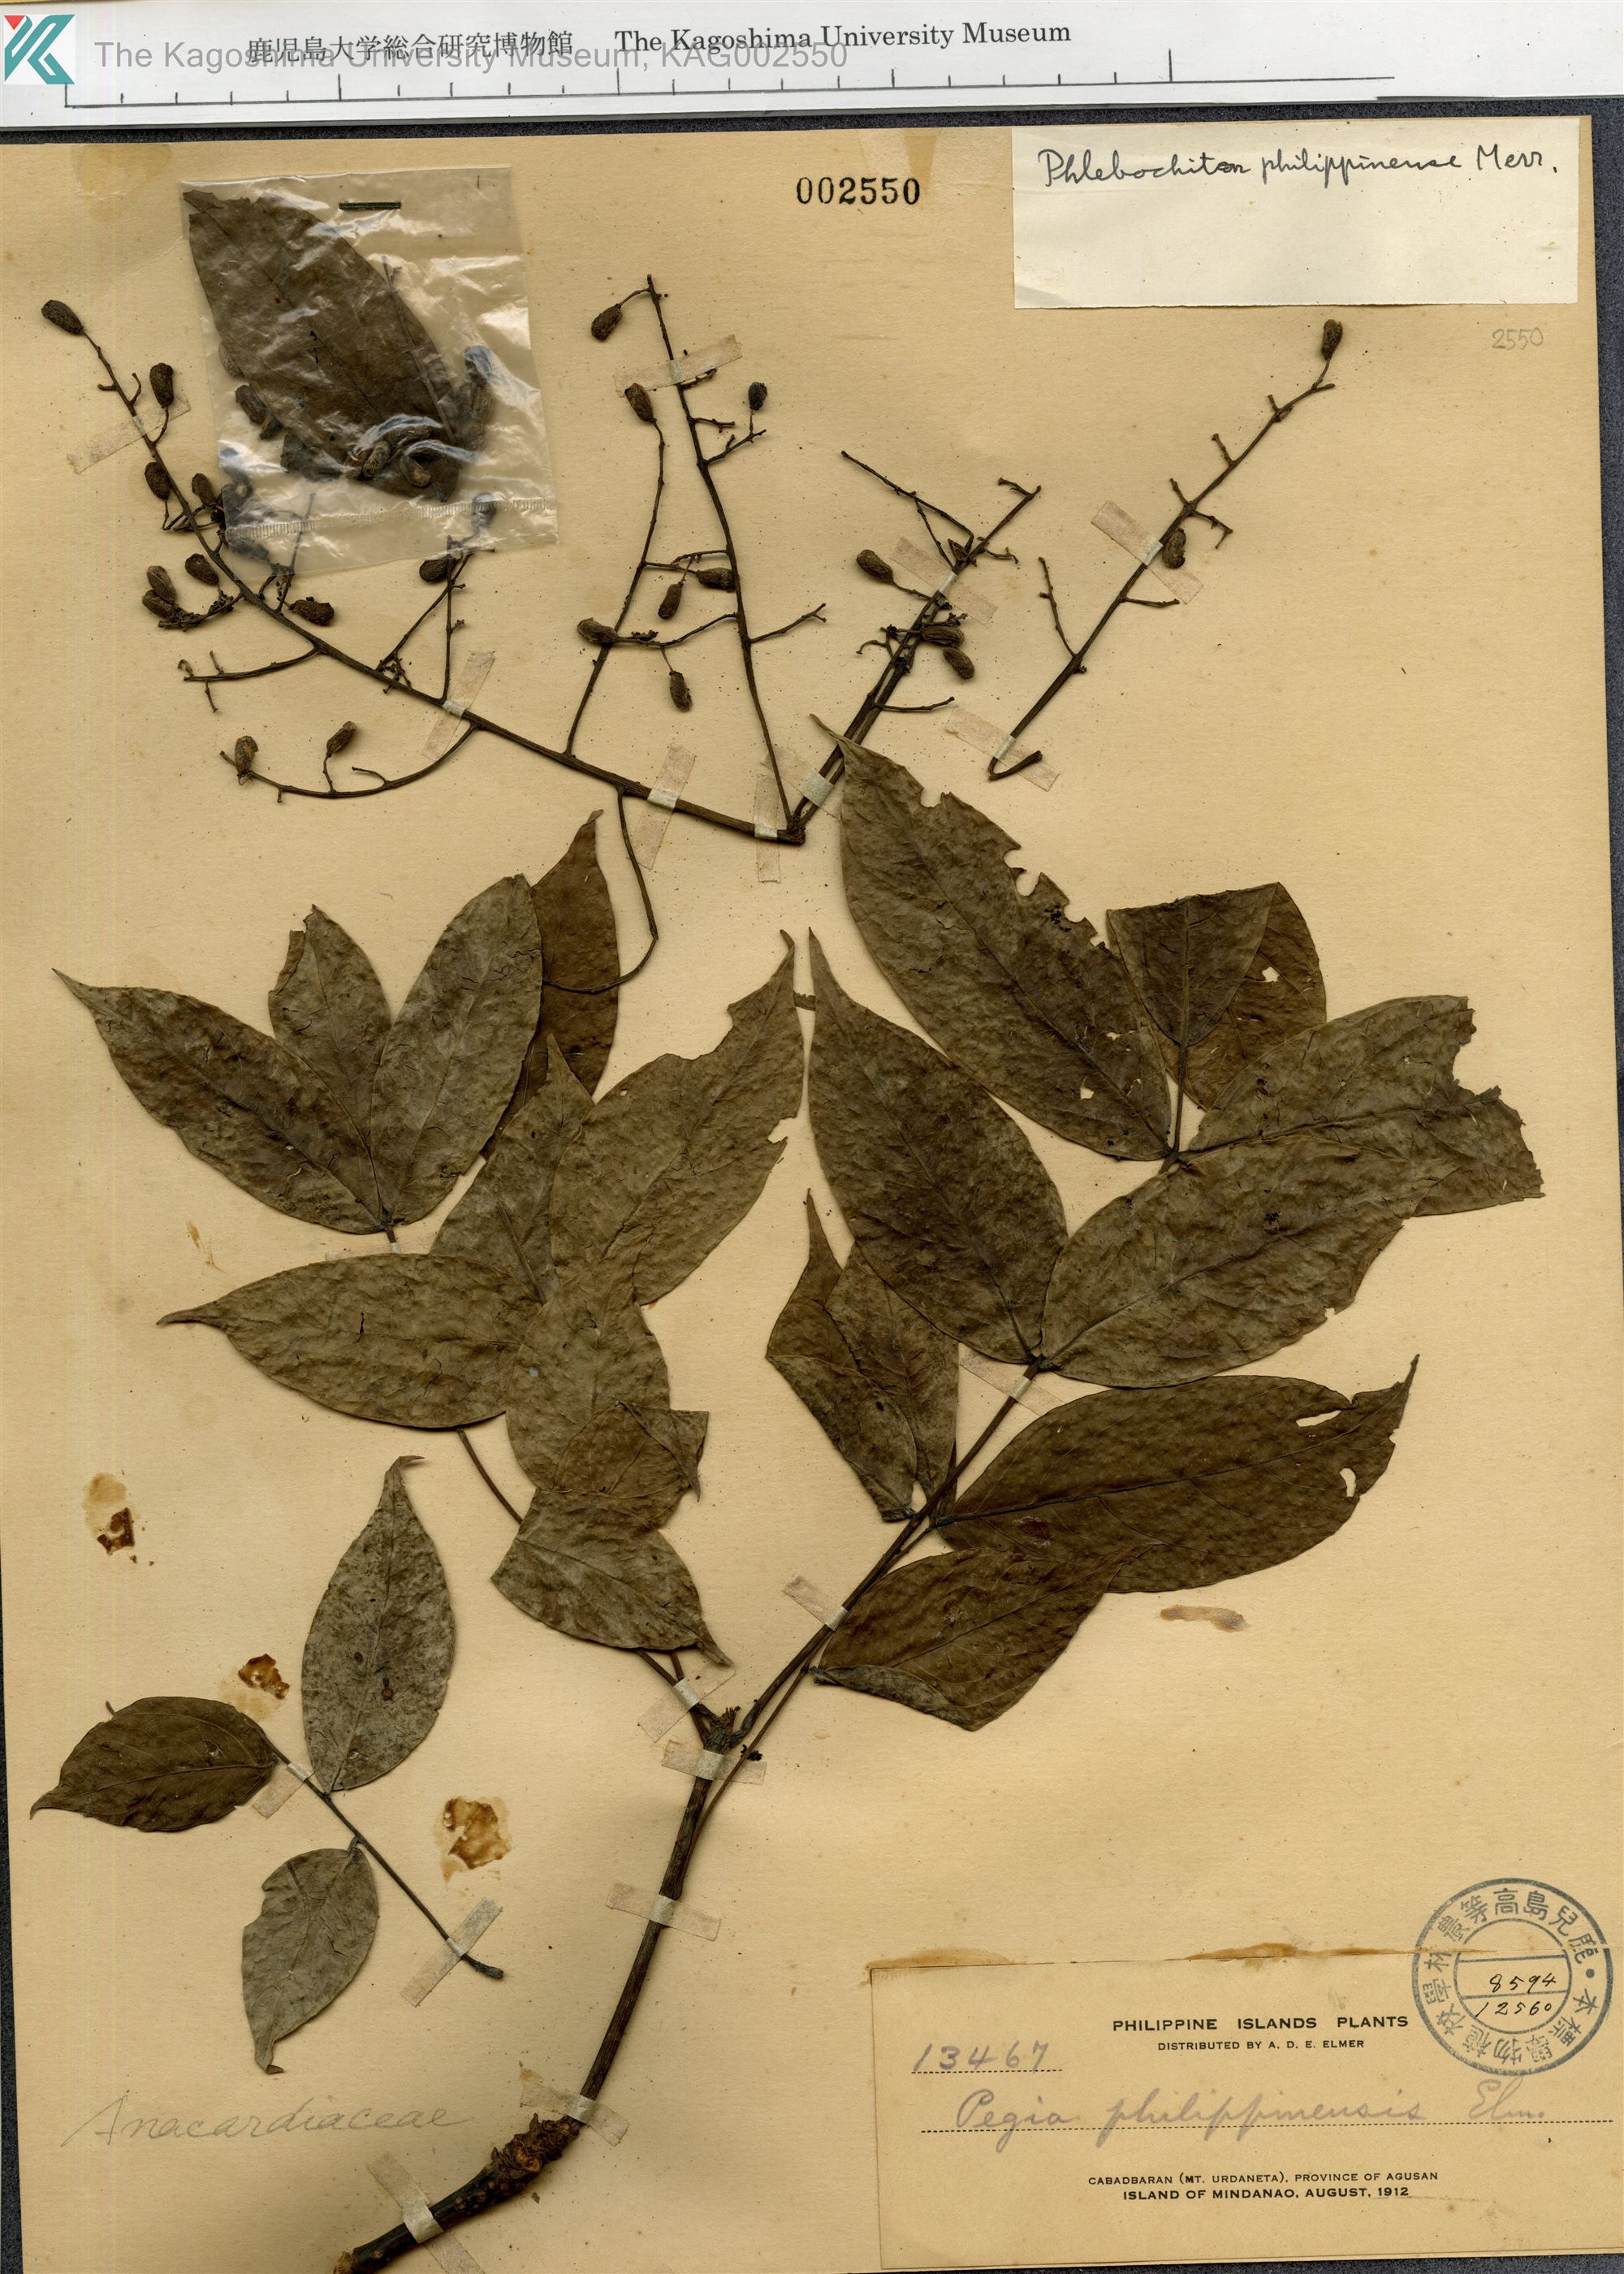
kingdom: Plantae
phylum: Tracheophyta
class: Magnoliopsida
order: Sapindales
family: Anacardiaceae
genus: Spondias
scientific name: Spondias philippinensis
